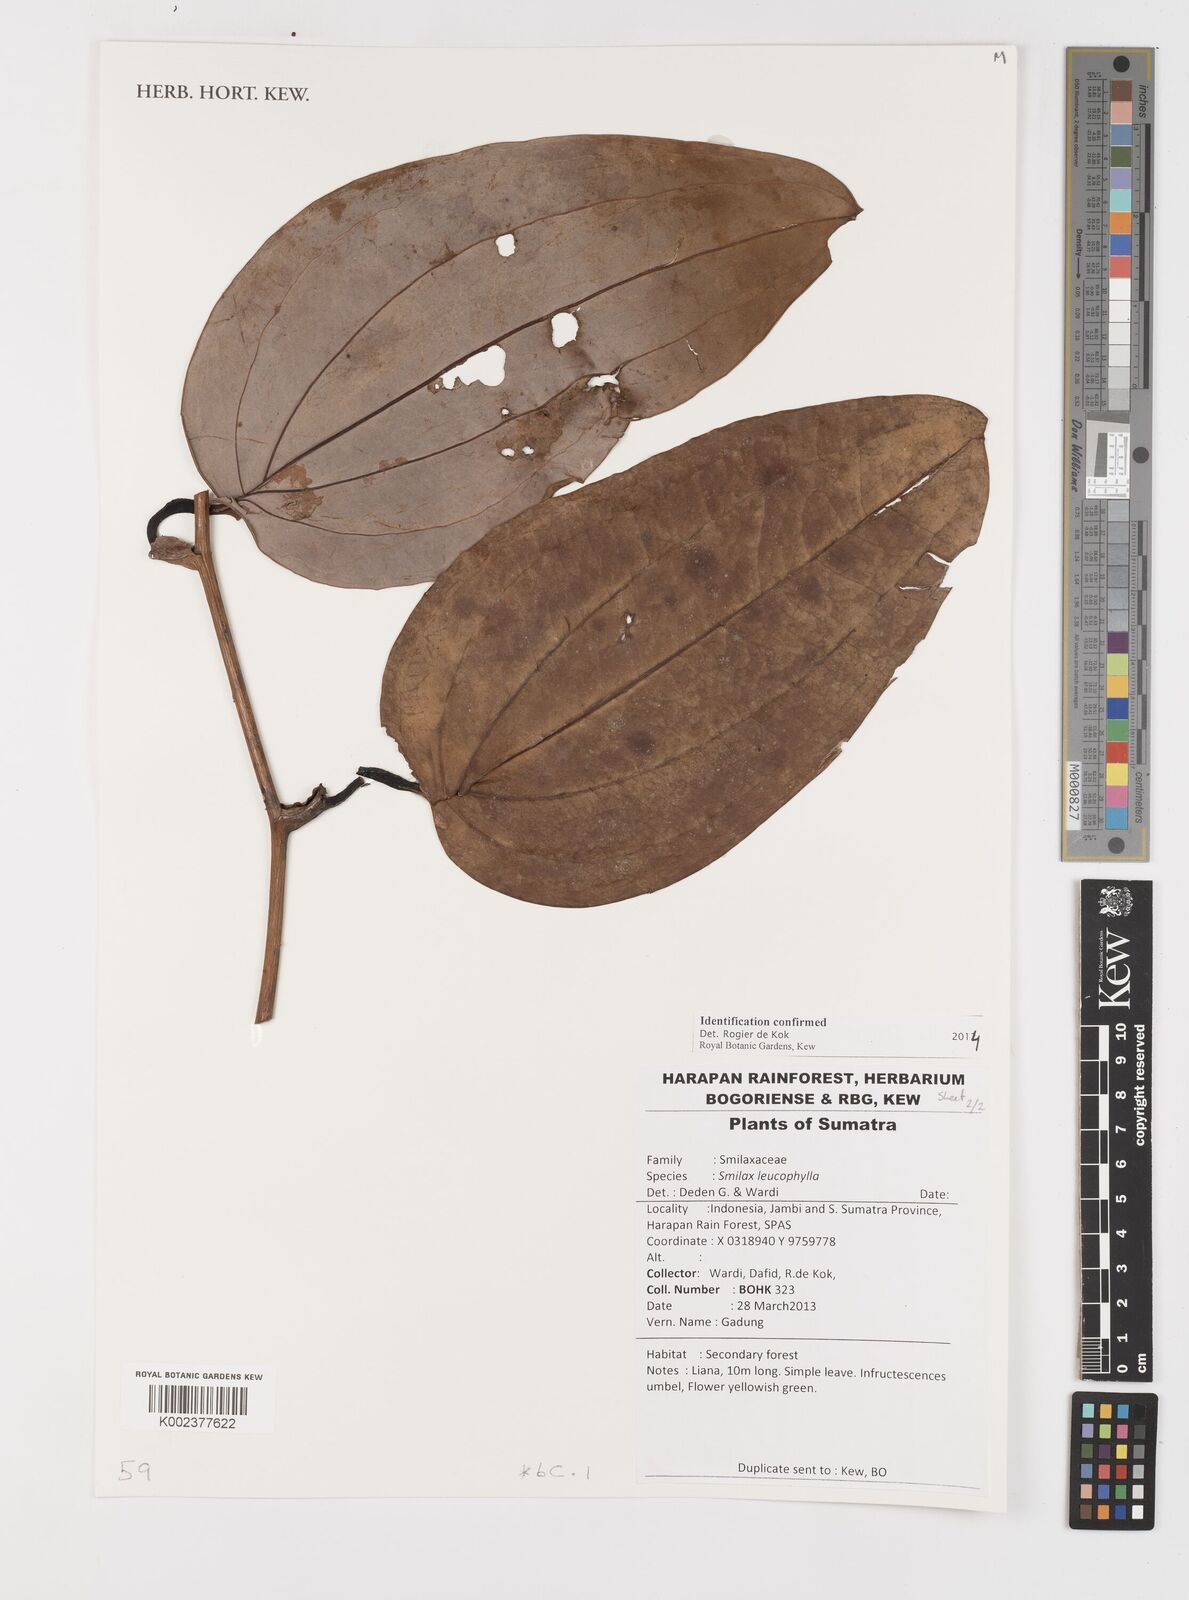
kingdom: Plantae
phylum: Tracheophyta
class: Liliopsida
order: Liliales
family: Smilacaceae
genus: Smilax
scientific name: Smilax leucophylla
